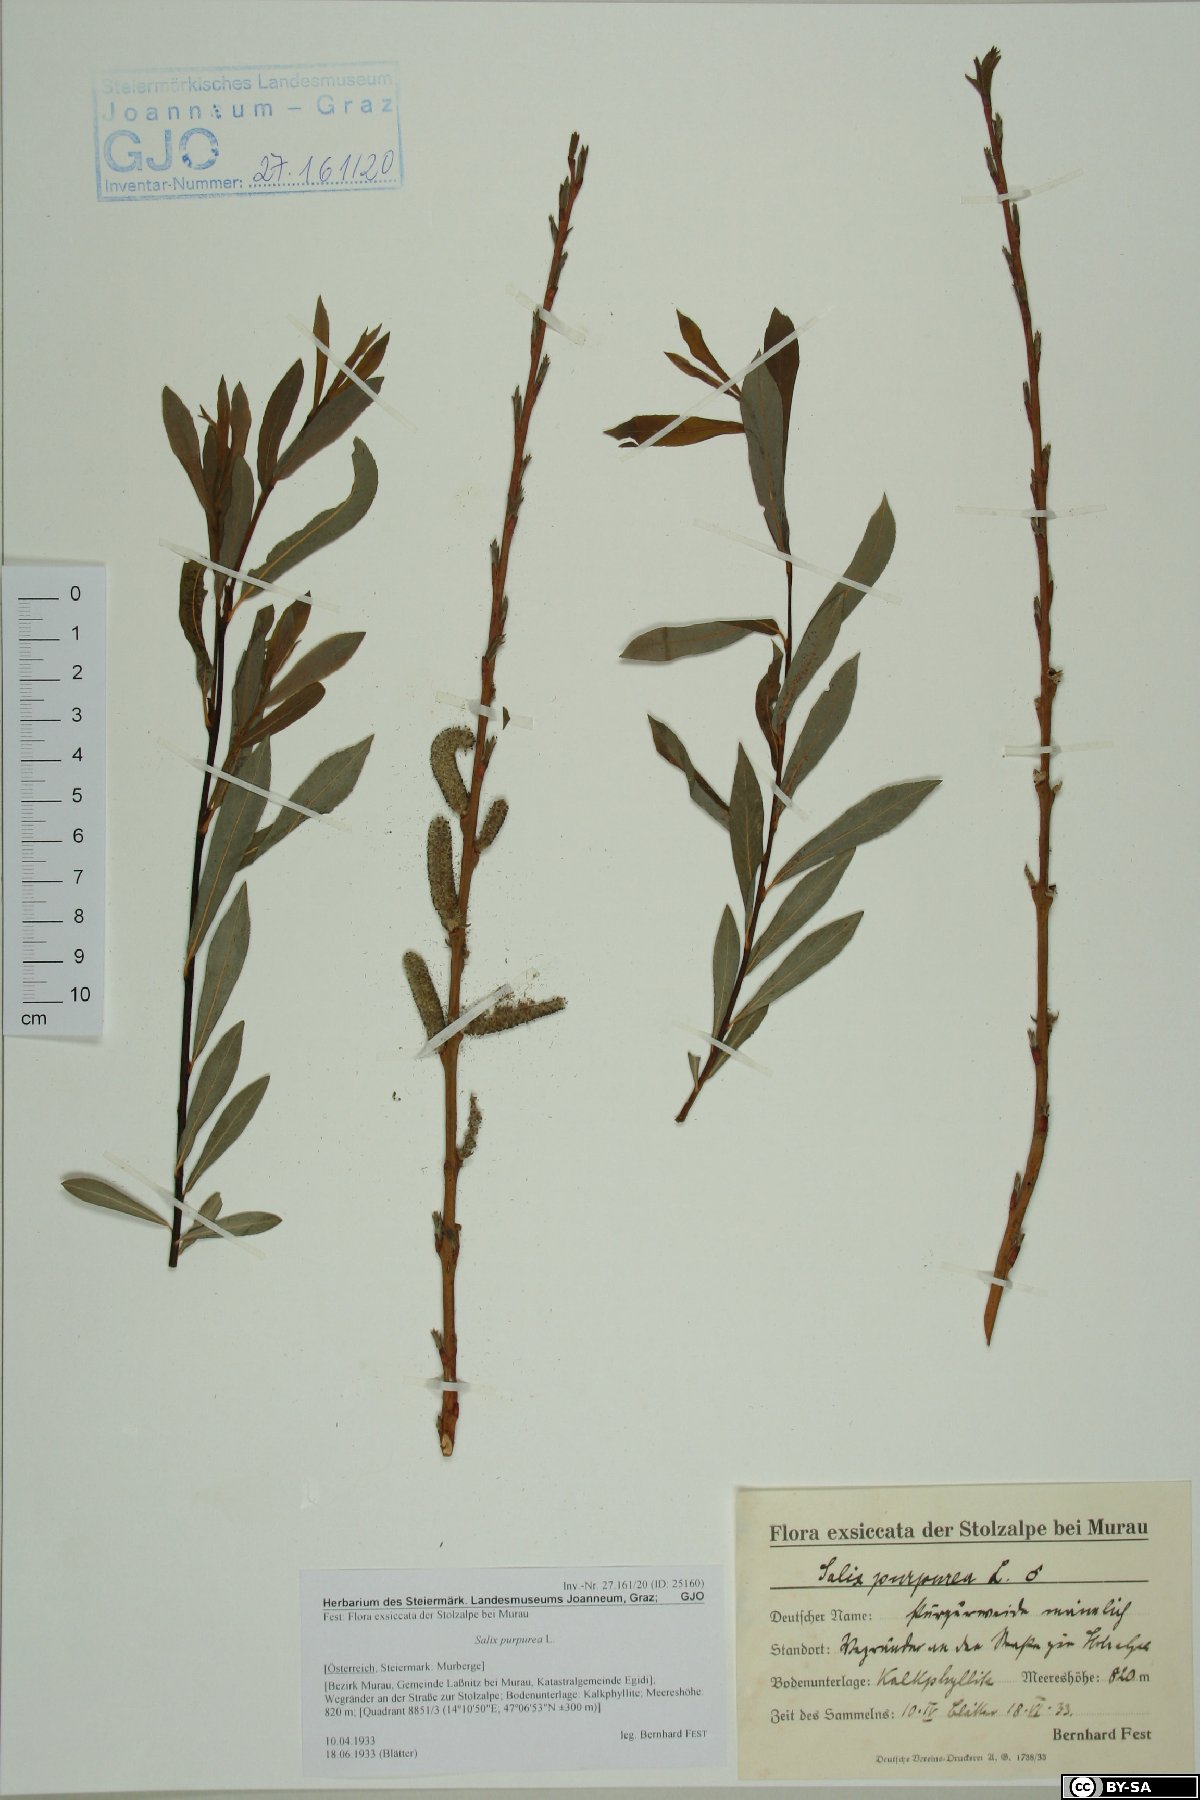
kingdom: Plantae
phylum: Tracheophyta
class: Magnoliopsida
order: Malpighiales
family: Salicaceae
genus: Salix
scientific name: Salix purpurea
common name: Purple willow
